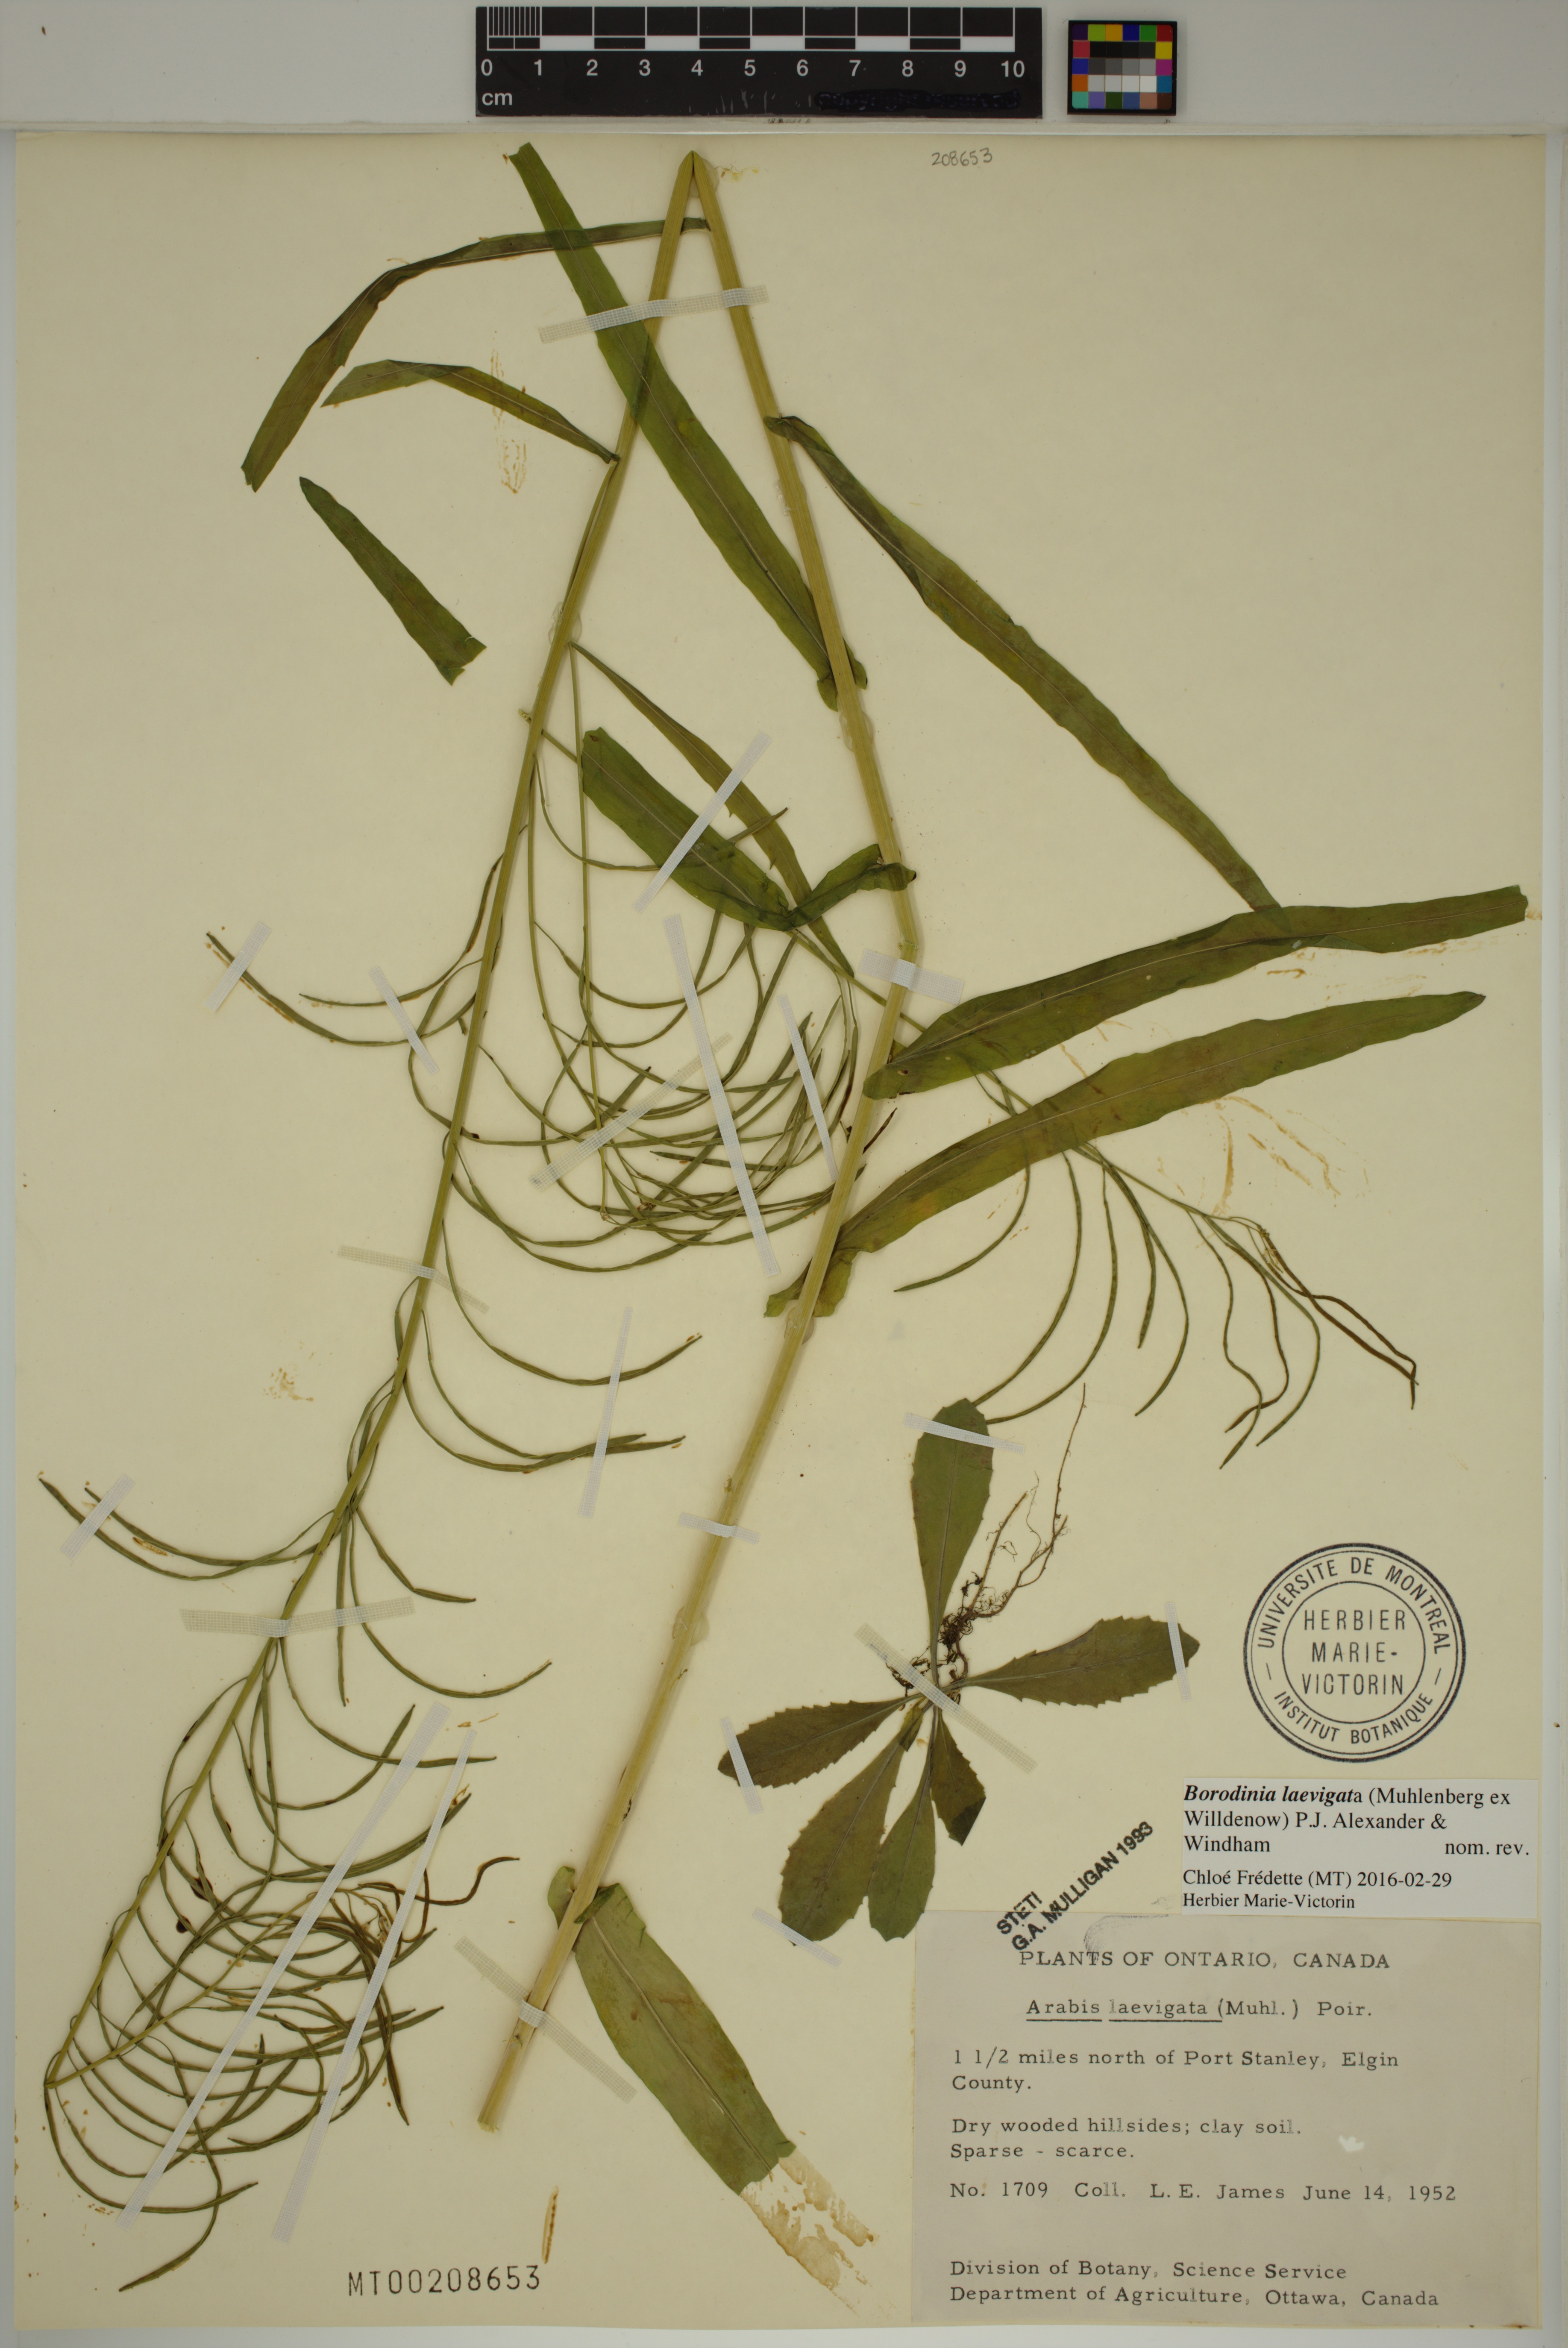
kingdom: Plantae
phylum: Tracheophyta
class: Magnoliopsida
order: Brassicales
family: Brassicaceae
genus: Borodinia
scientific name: Borodinia laevigata
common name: Smooth rockcress
